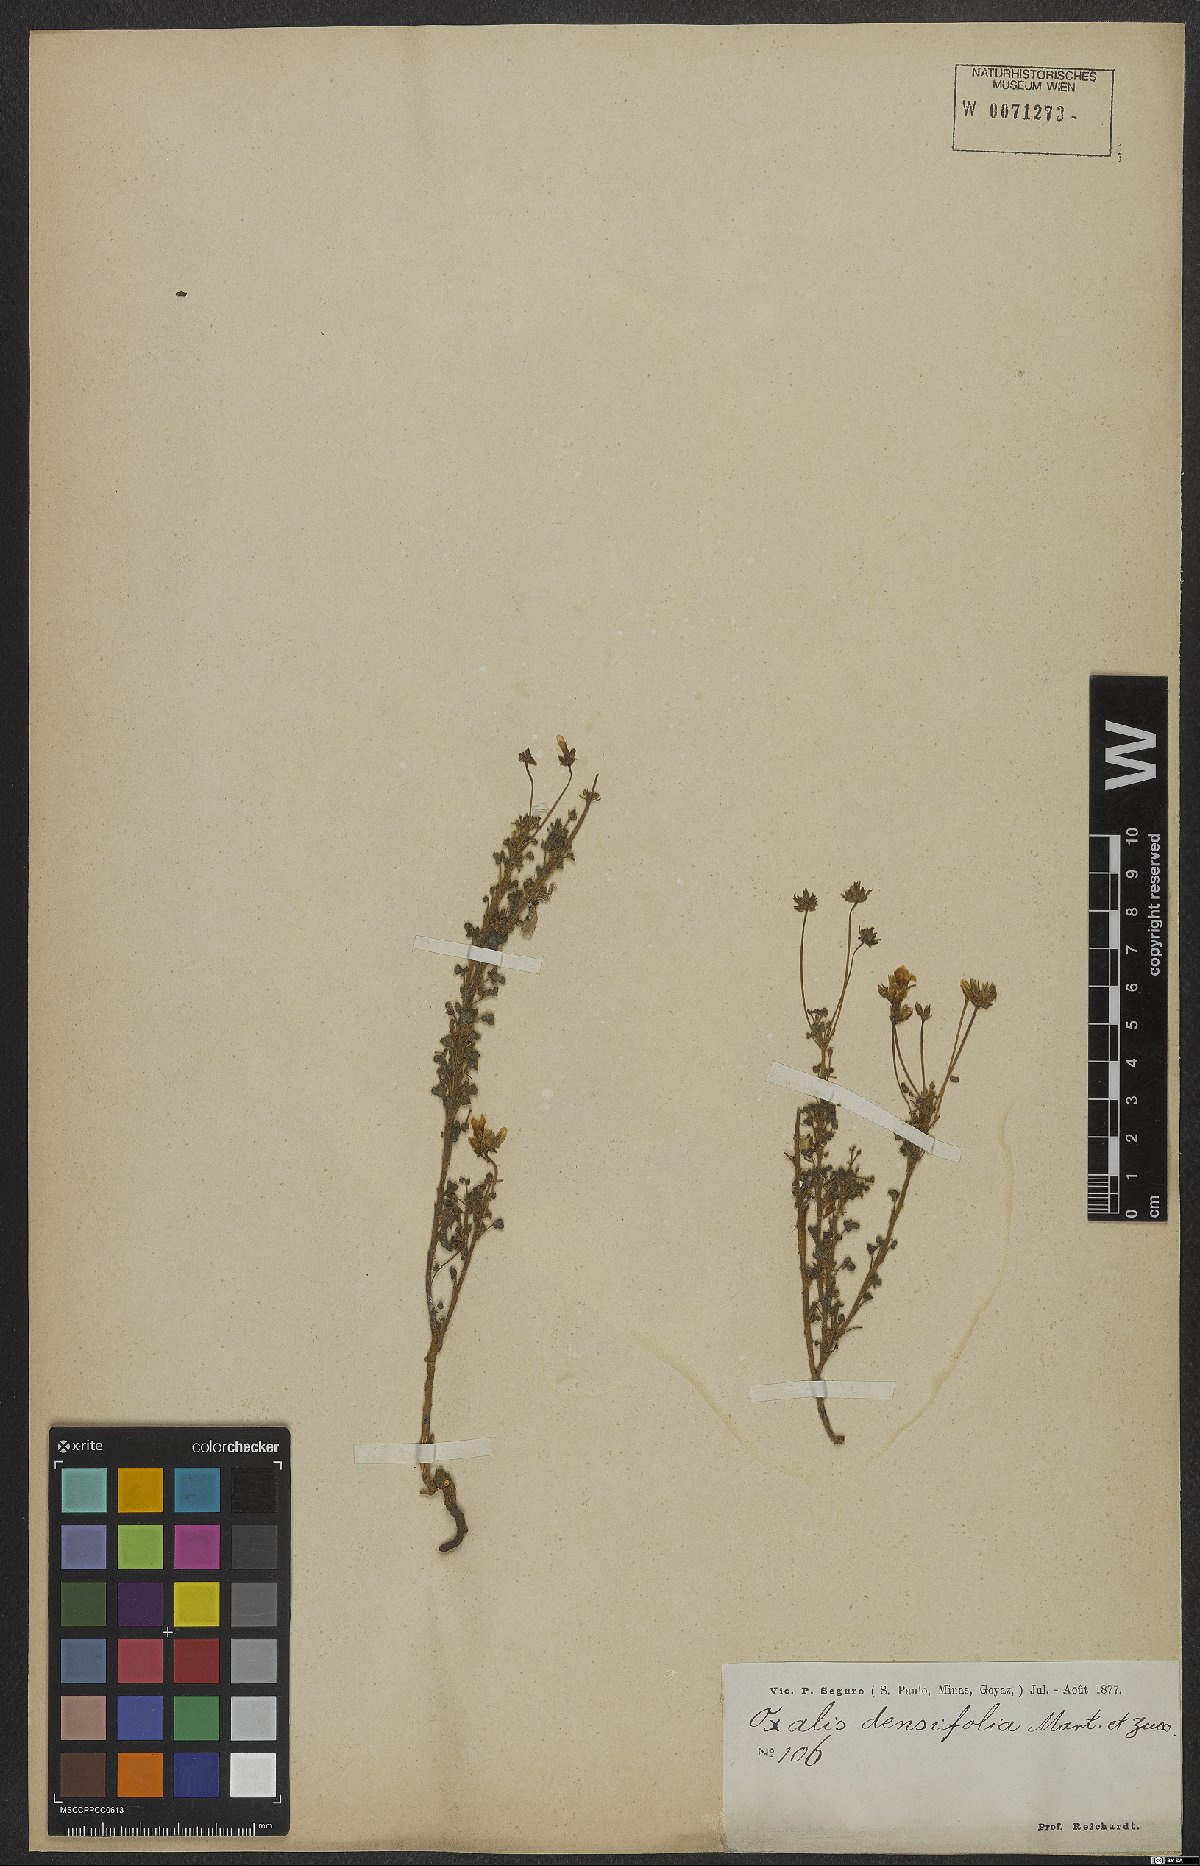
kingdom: Plantae
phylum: Tracheophyta
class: Magnoliopsida
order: Oxalidales
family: Oxalidaceae
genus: Oxalis
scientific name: Oxalis confertifolia
